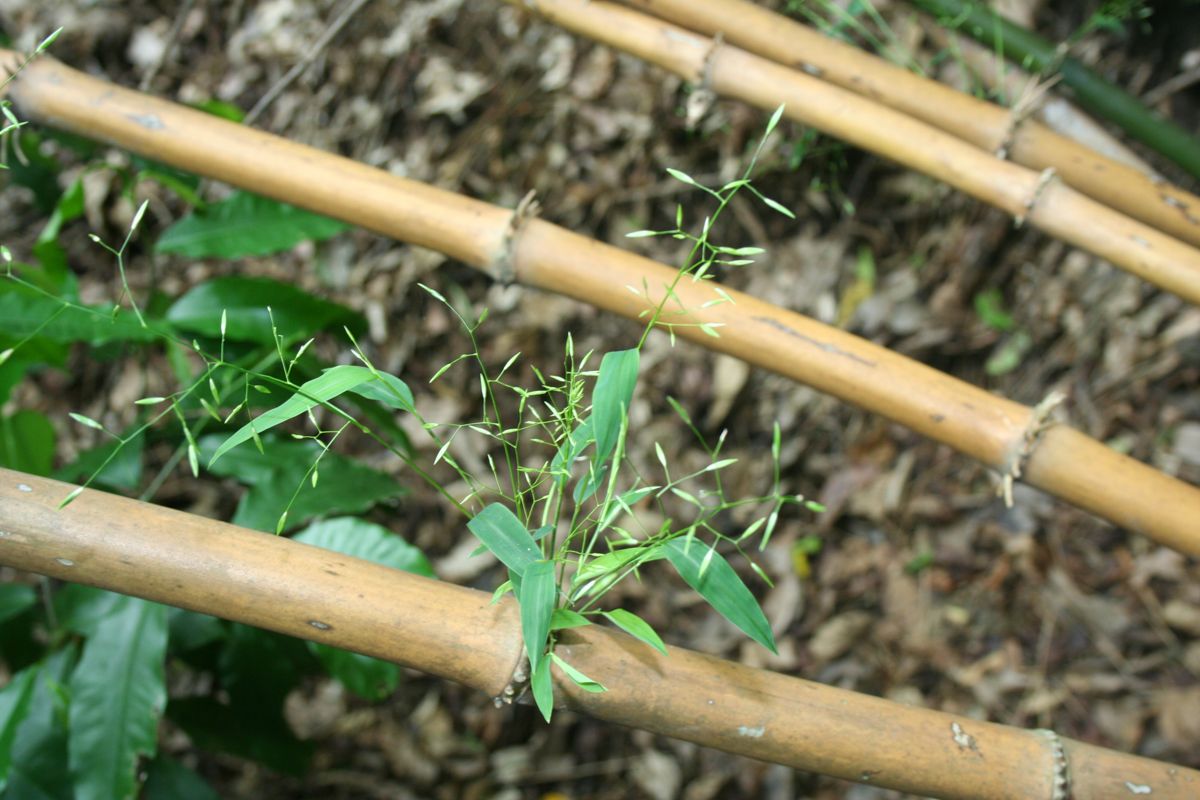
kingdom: Plantae
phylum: Tracheophyta
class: Liliopsida
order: Poales
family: Poaceae
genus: Rhipidocladum
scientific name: Rhipidocladum racemiflorum
